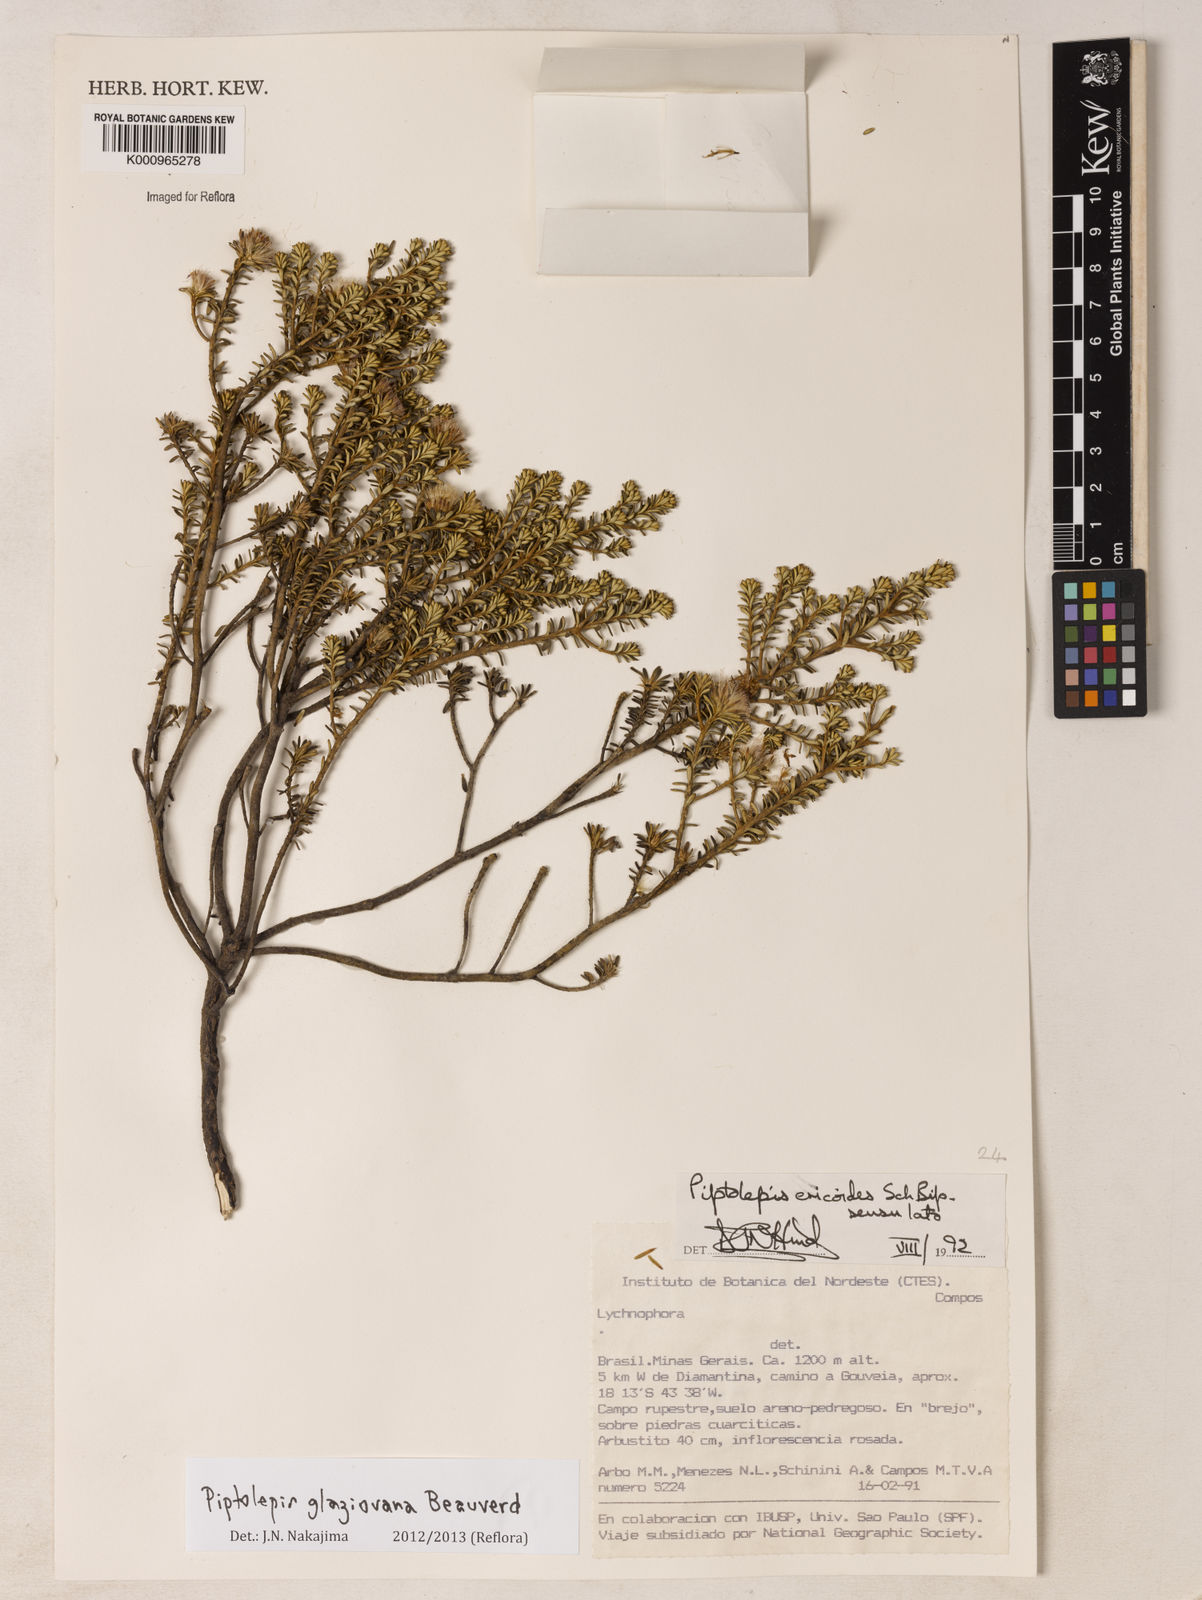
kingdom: Plantae
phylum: Tracheophyta
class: Magnoliopsida
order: Asterales
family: Asteraceae
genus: Piptolepis
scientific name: Piptolepis glaziouana
